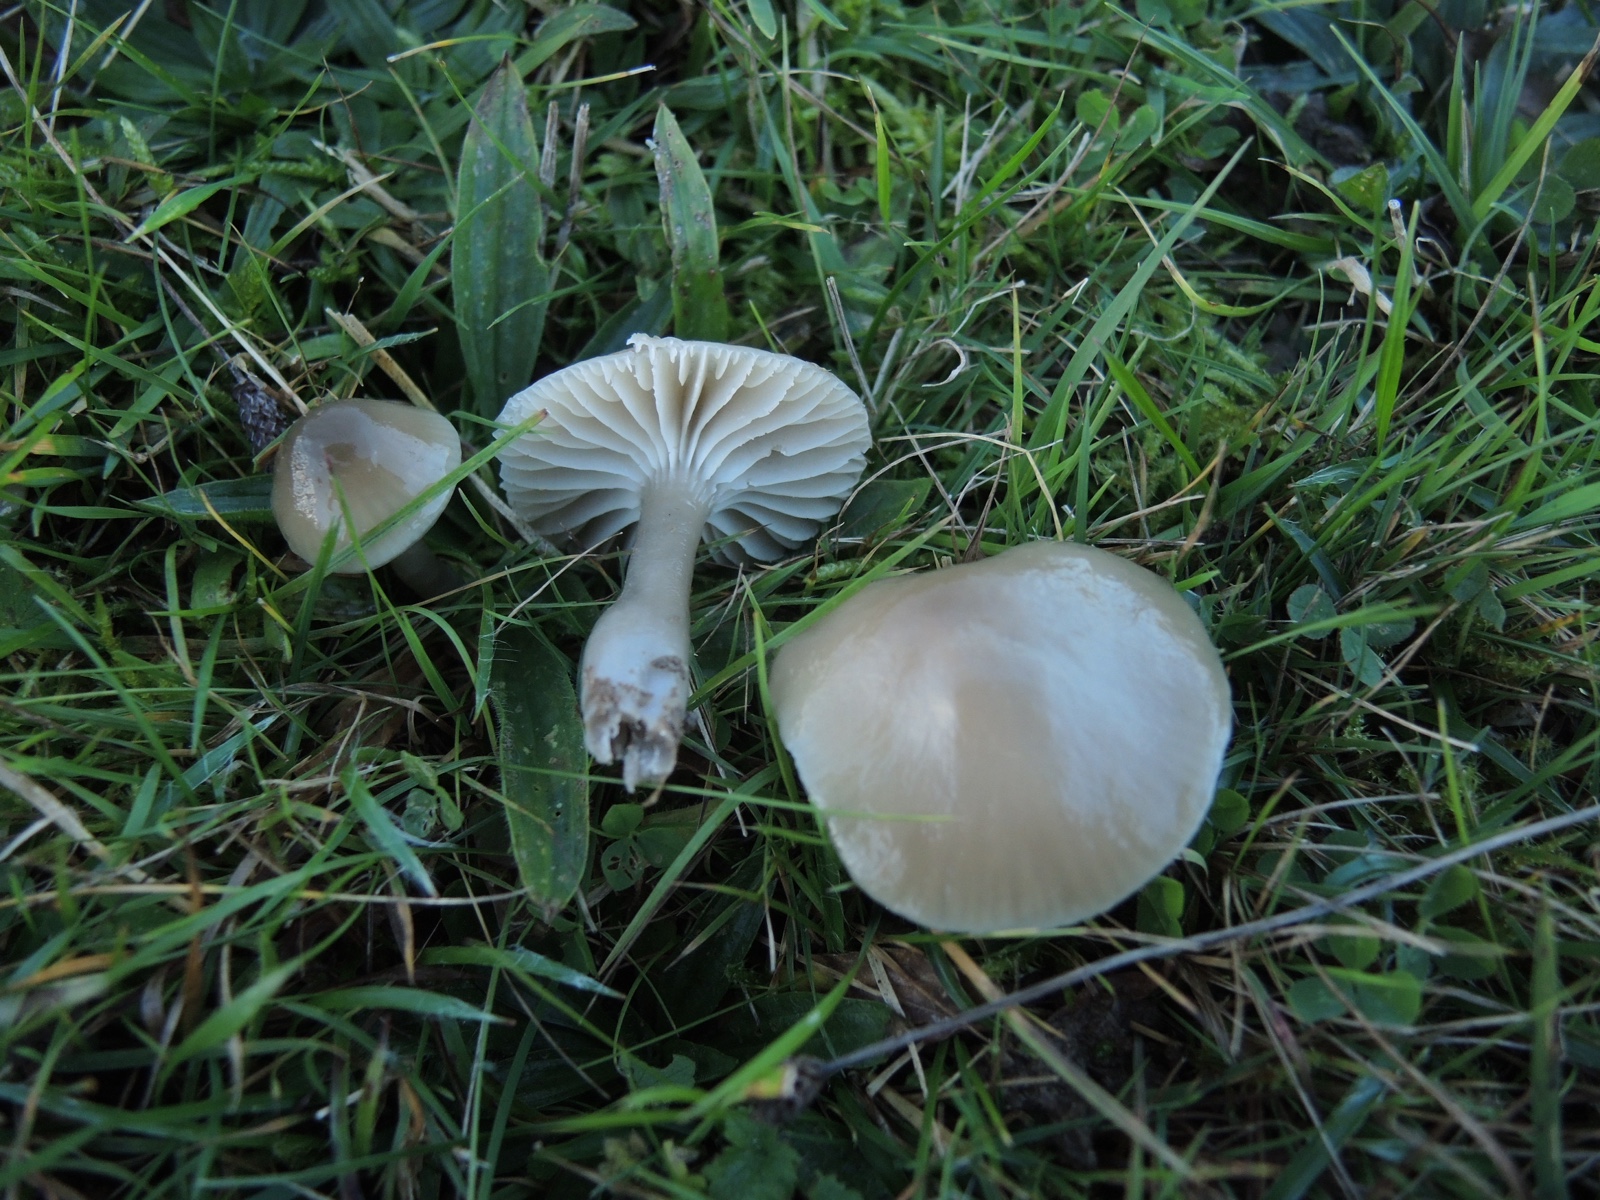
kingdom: Fungi
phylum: Basidiomycota
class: Agaricomycetes
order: Agaricales
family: Hygrophoraceae
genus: Gliophorus
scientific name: Gliophorus irrigatus
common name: slimet vokshat
